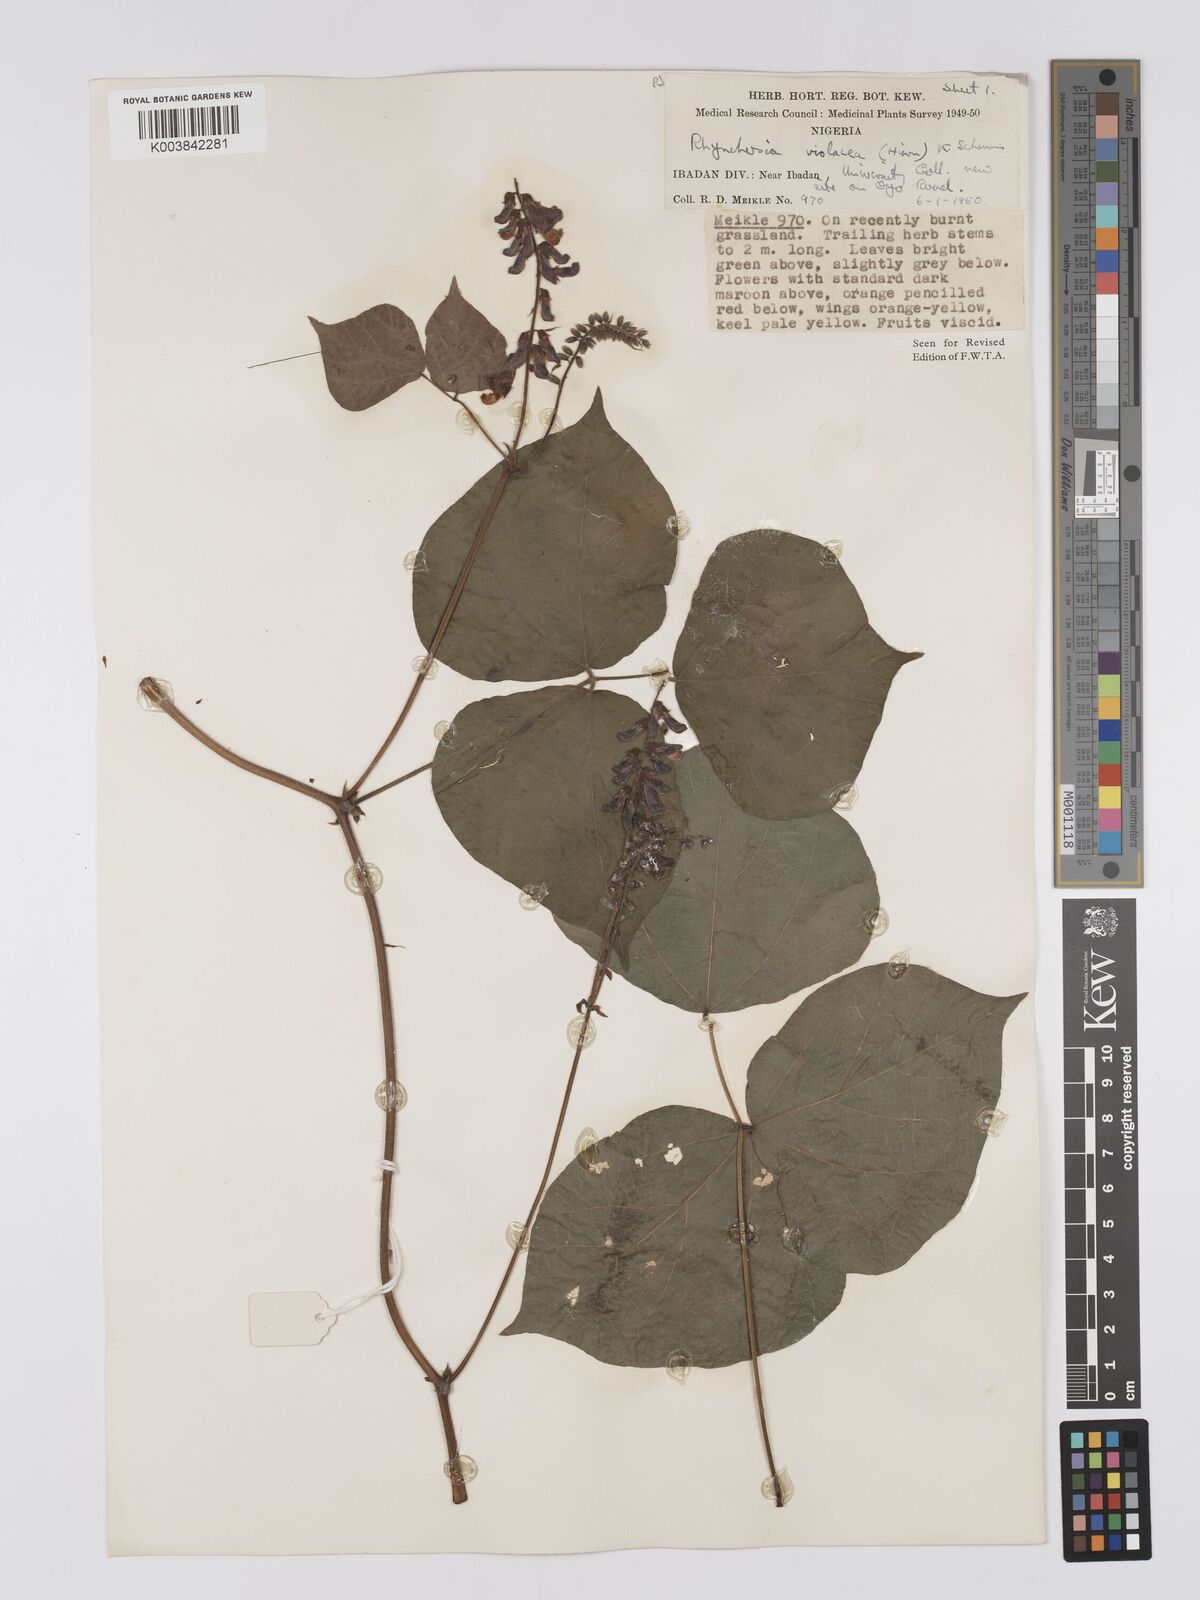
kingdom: Plantae
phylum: Tracheophyta
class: Magnoliopsida
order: Fabales
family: Fabaceae
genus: Rhynchosia
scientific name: Rhynchosia viscosa
